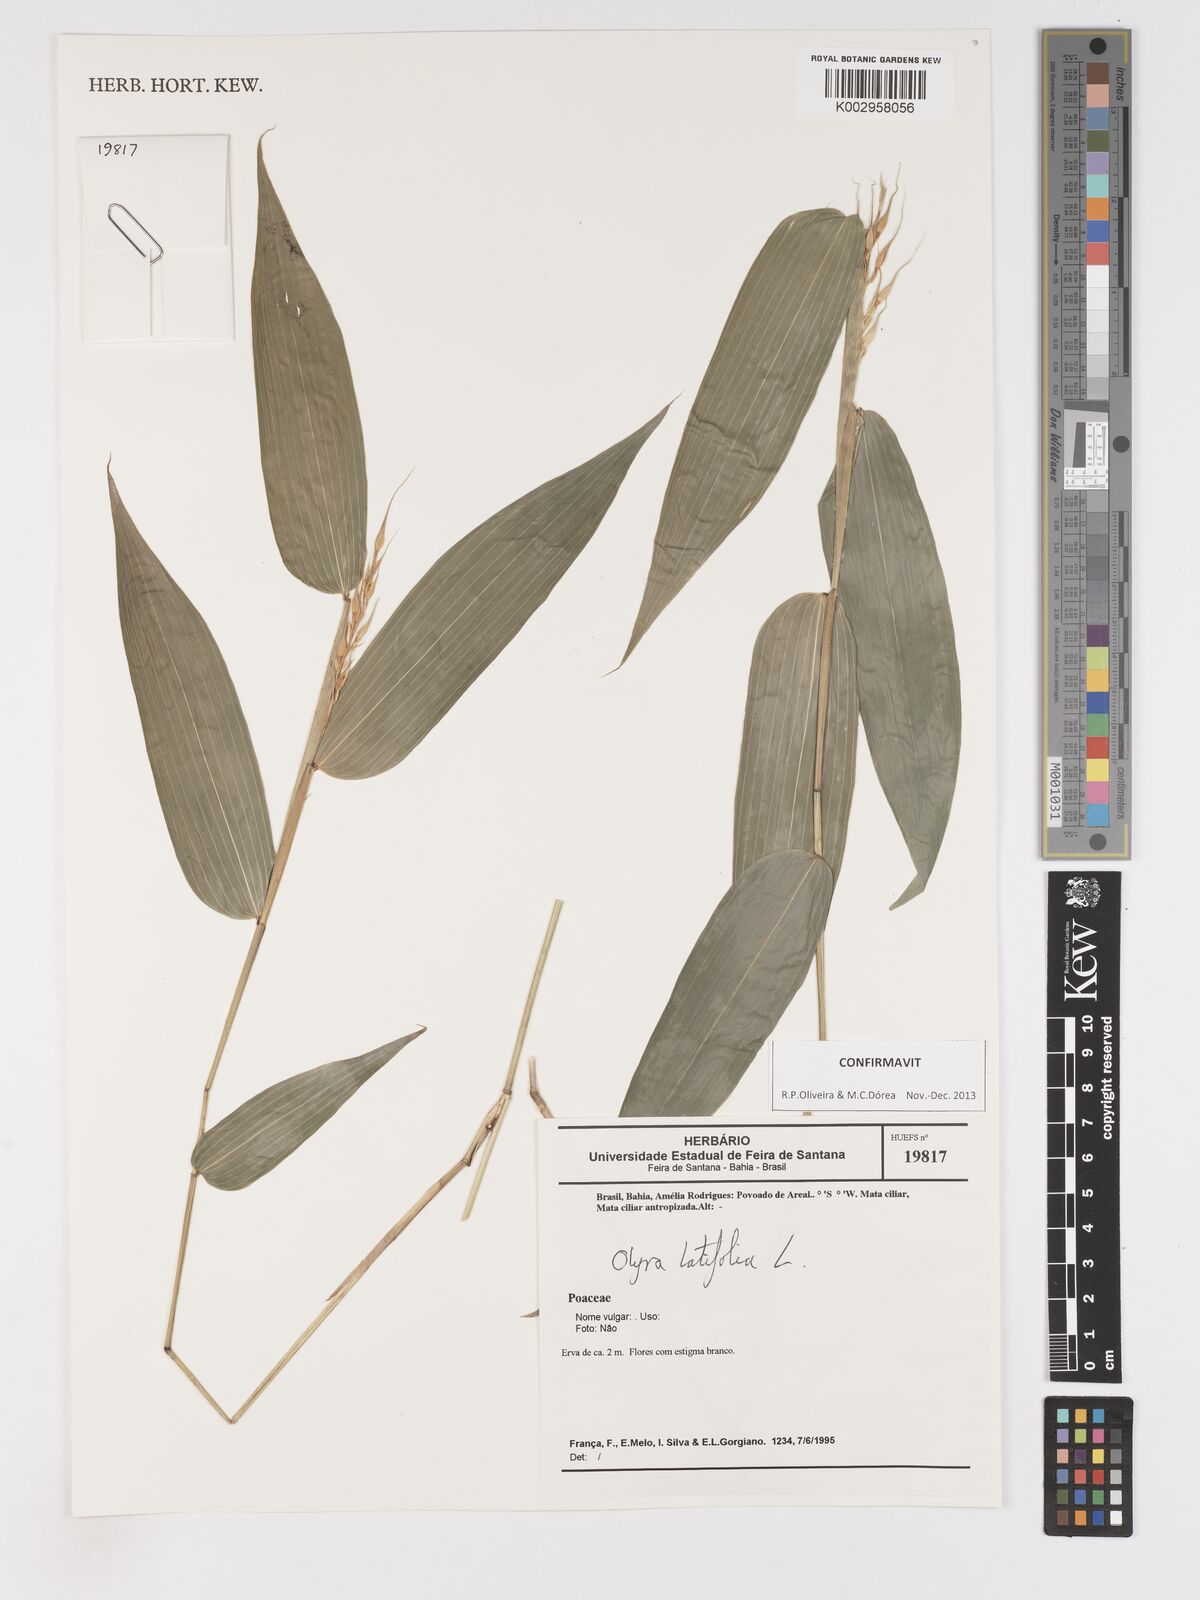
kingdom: Plantae
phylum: Tracheophyta
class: Liliopsida
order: Poales
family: Poaceae
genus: Olyra
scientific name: Olyra latifolia
